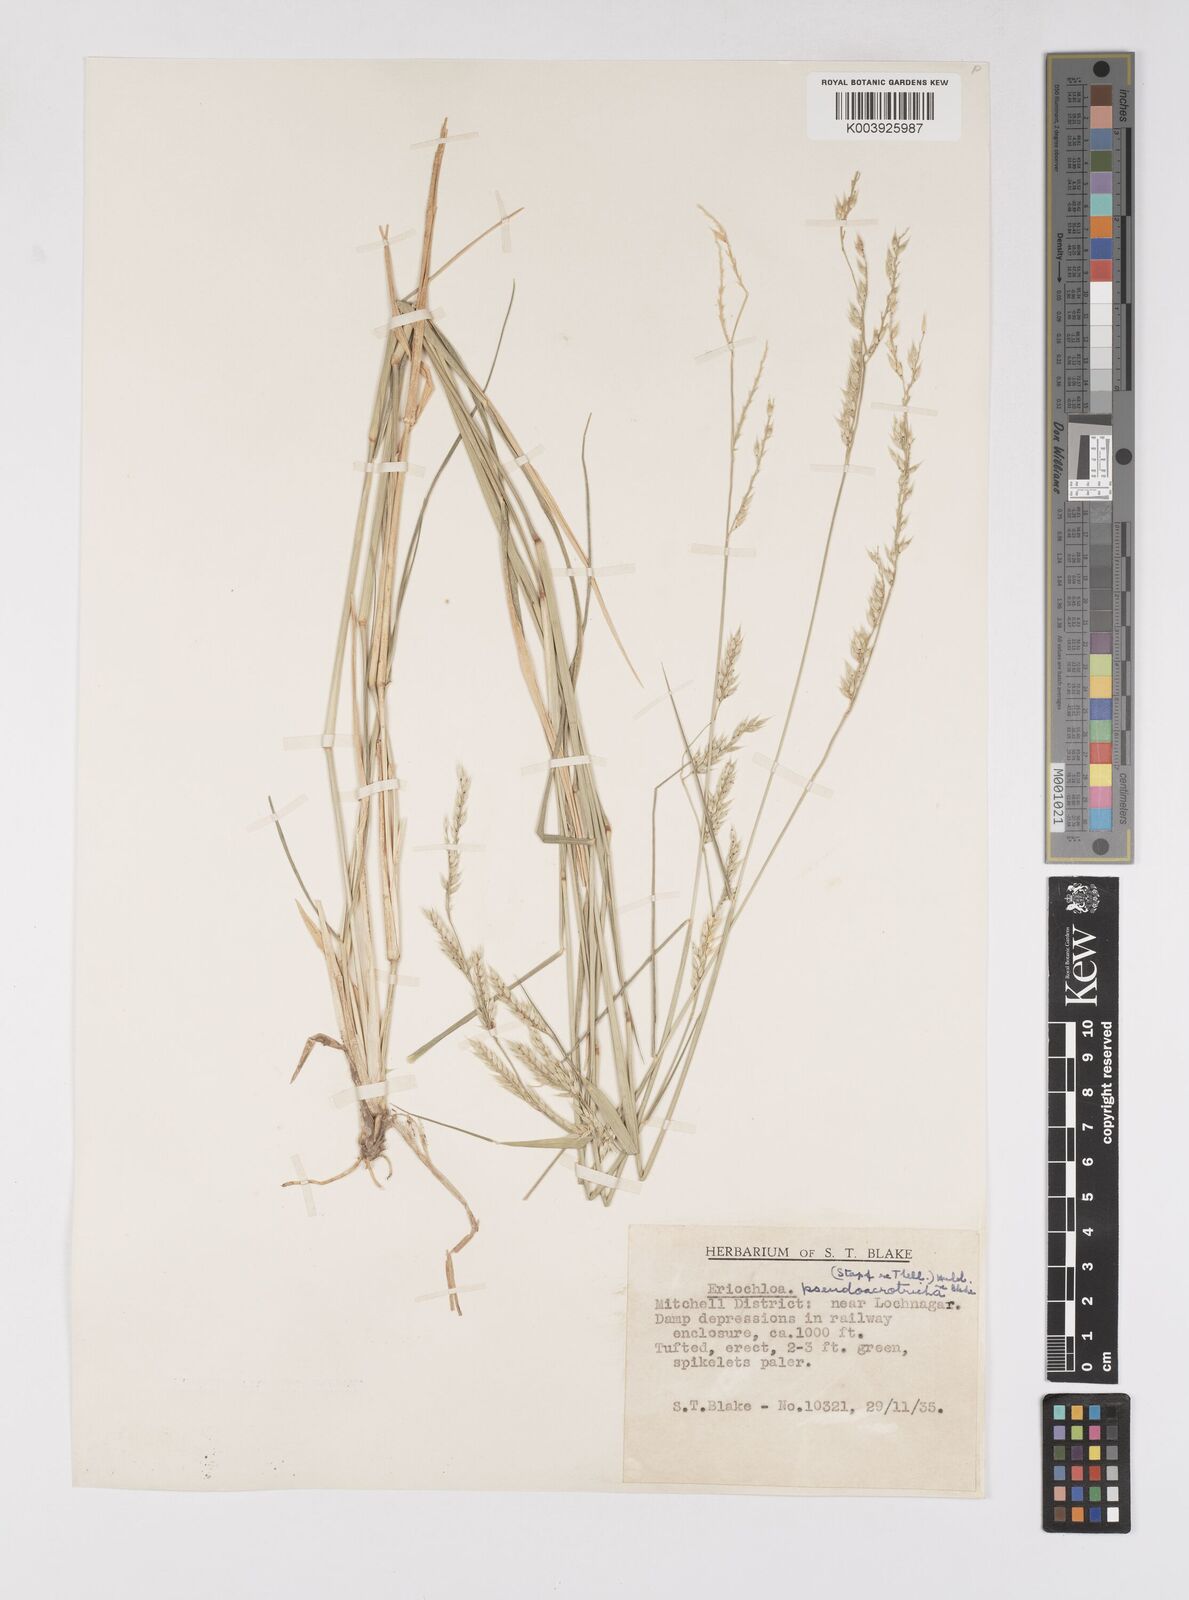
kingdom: Plantae
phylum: Tracheophyta
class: Liliopsida
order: Poales
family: Poaceae
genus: Eriochloa
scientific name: Eriochloa pseudoacrotricha
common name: Perennial cup-grass
